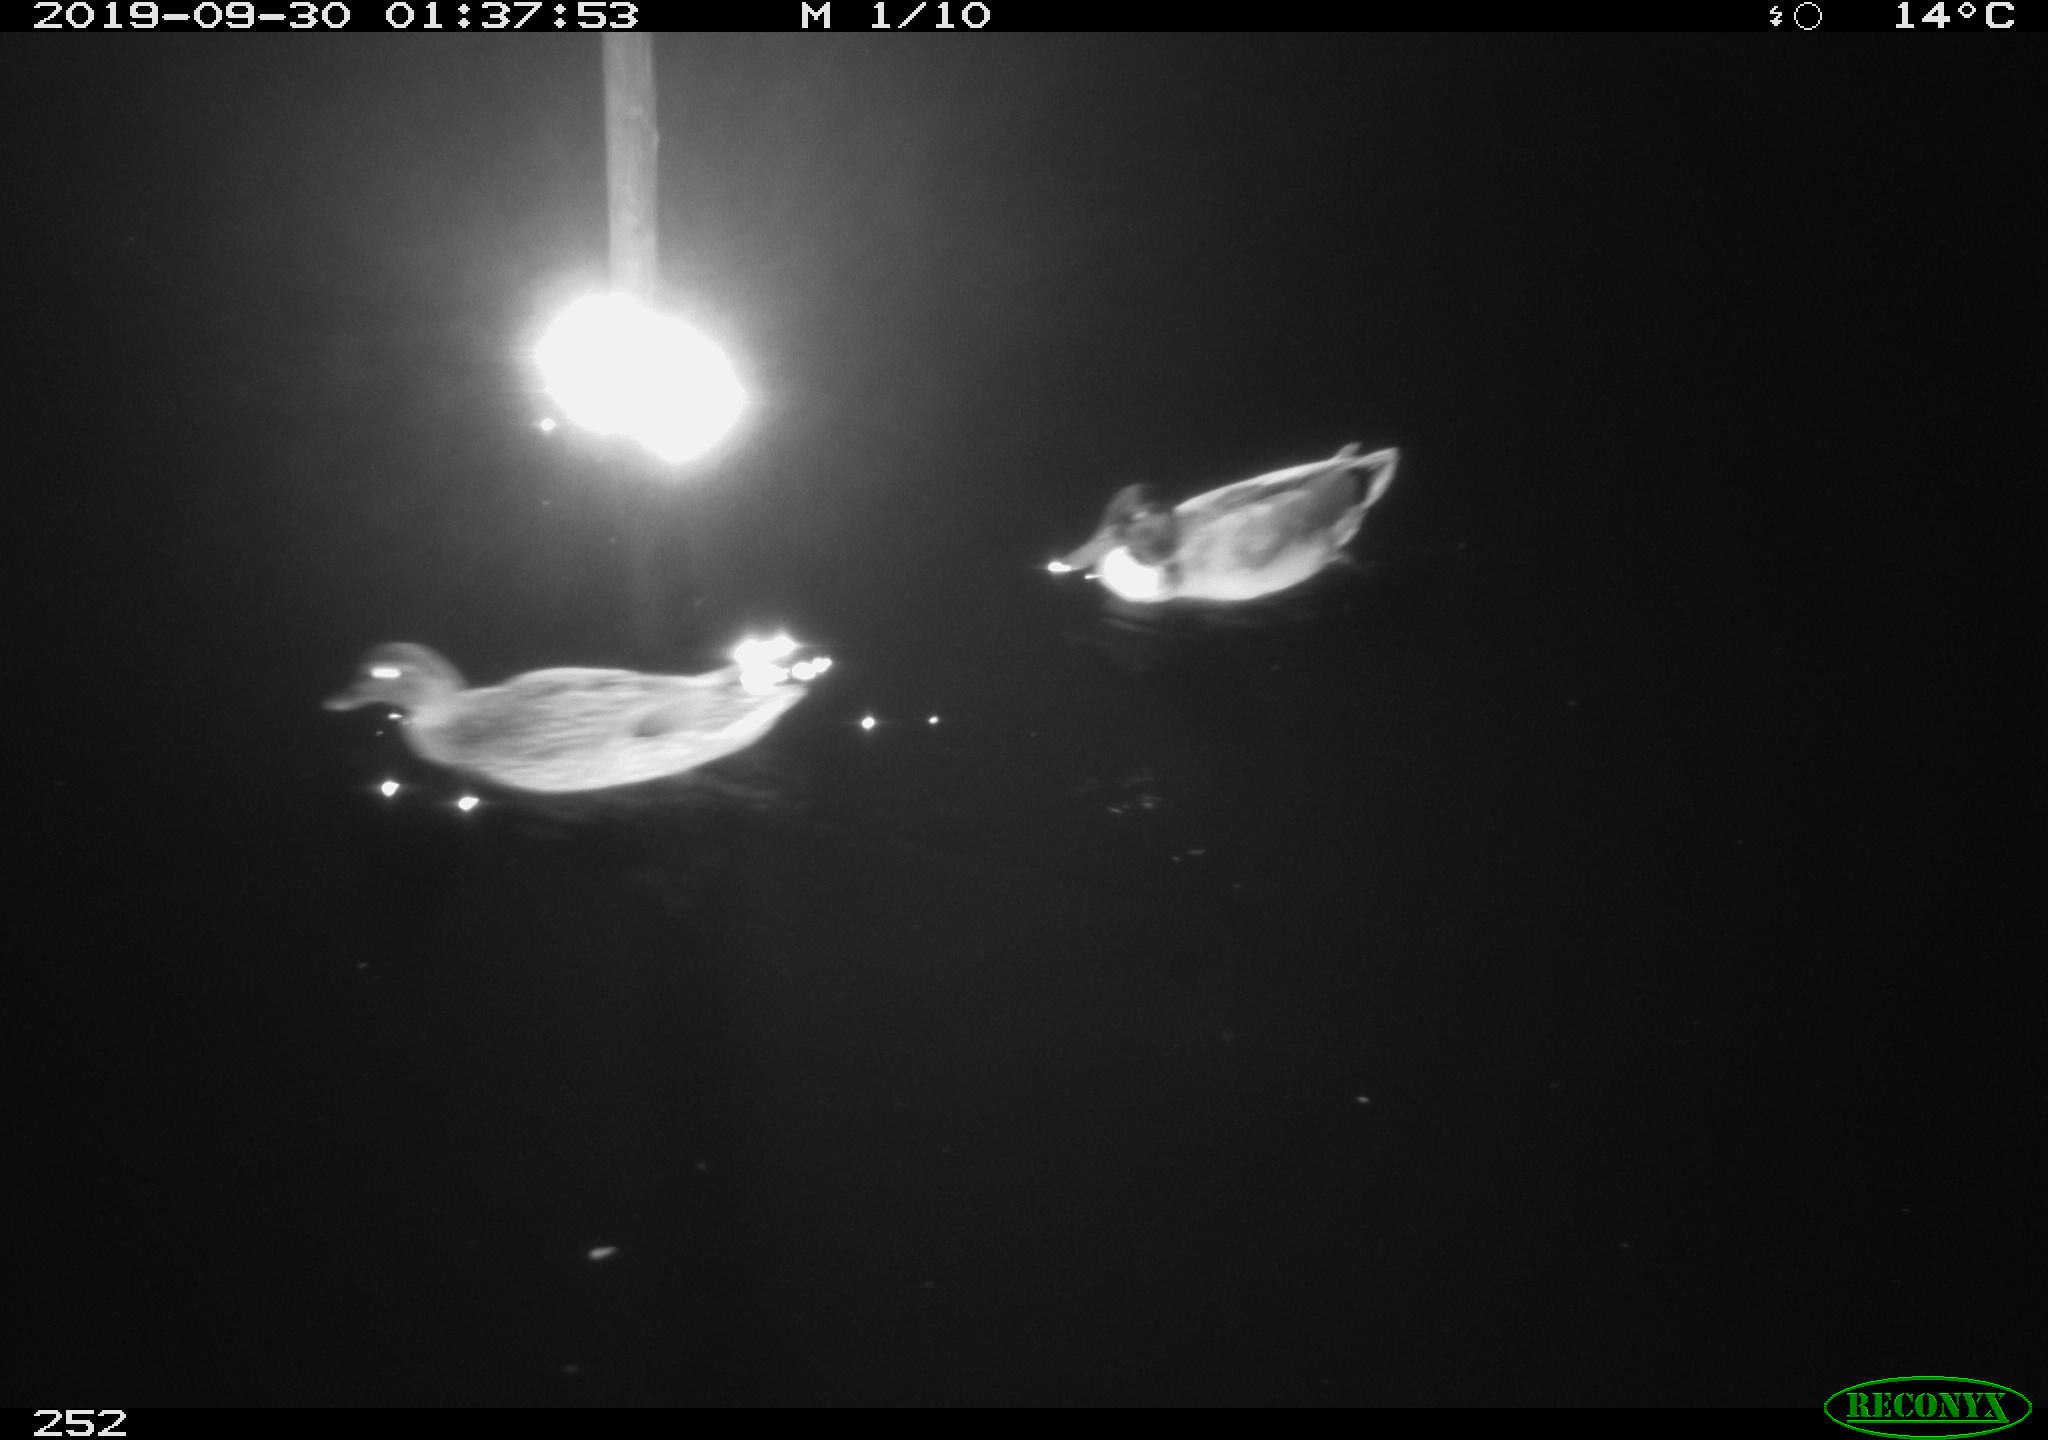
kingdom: Animalia
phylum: Chordata
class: Aves
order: Anseriformes
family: Anatidae
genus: Anas
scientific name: Anas platyrhynchos
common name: Mallard
